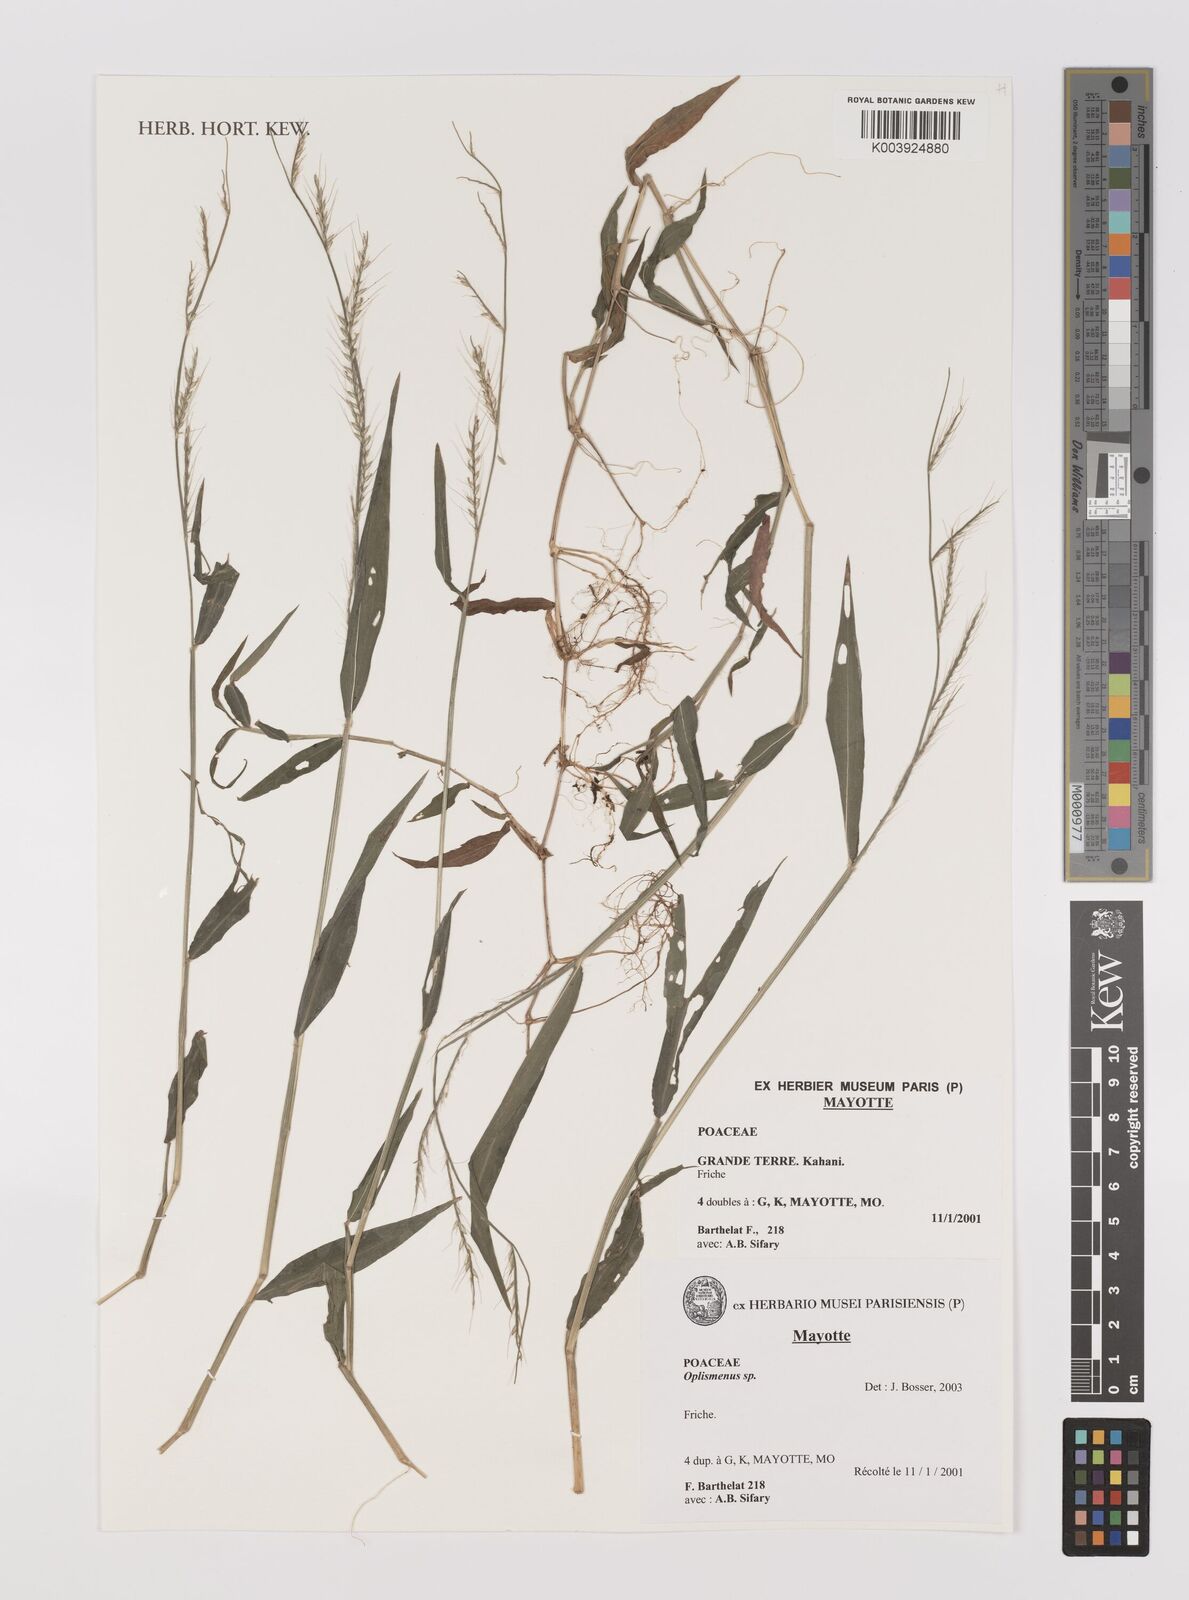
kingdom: Plantae
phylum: Tracheophyta
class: Liliopsida
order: Poales
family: Poaceae
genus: Oplismenus
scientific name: Oplismenus compositus
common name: Running mountain grass
